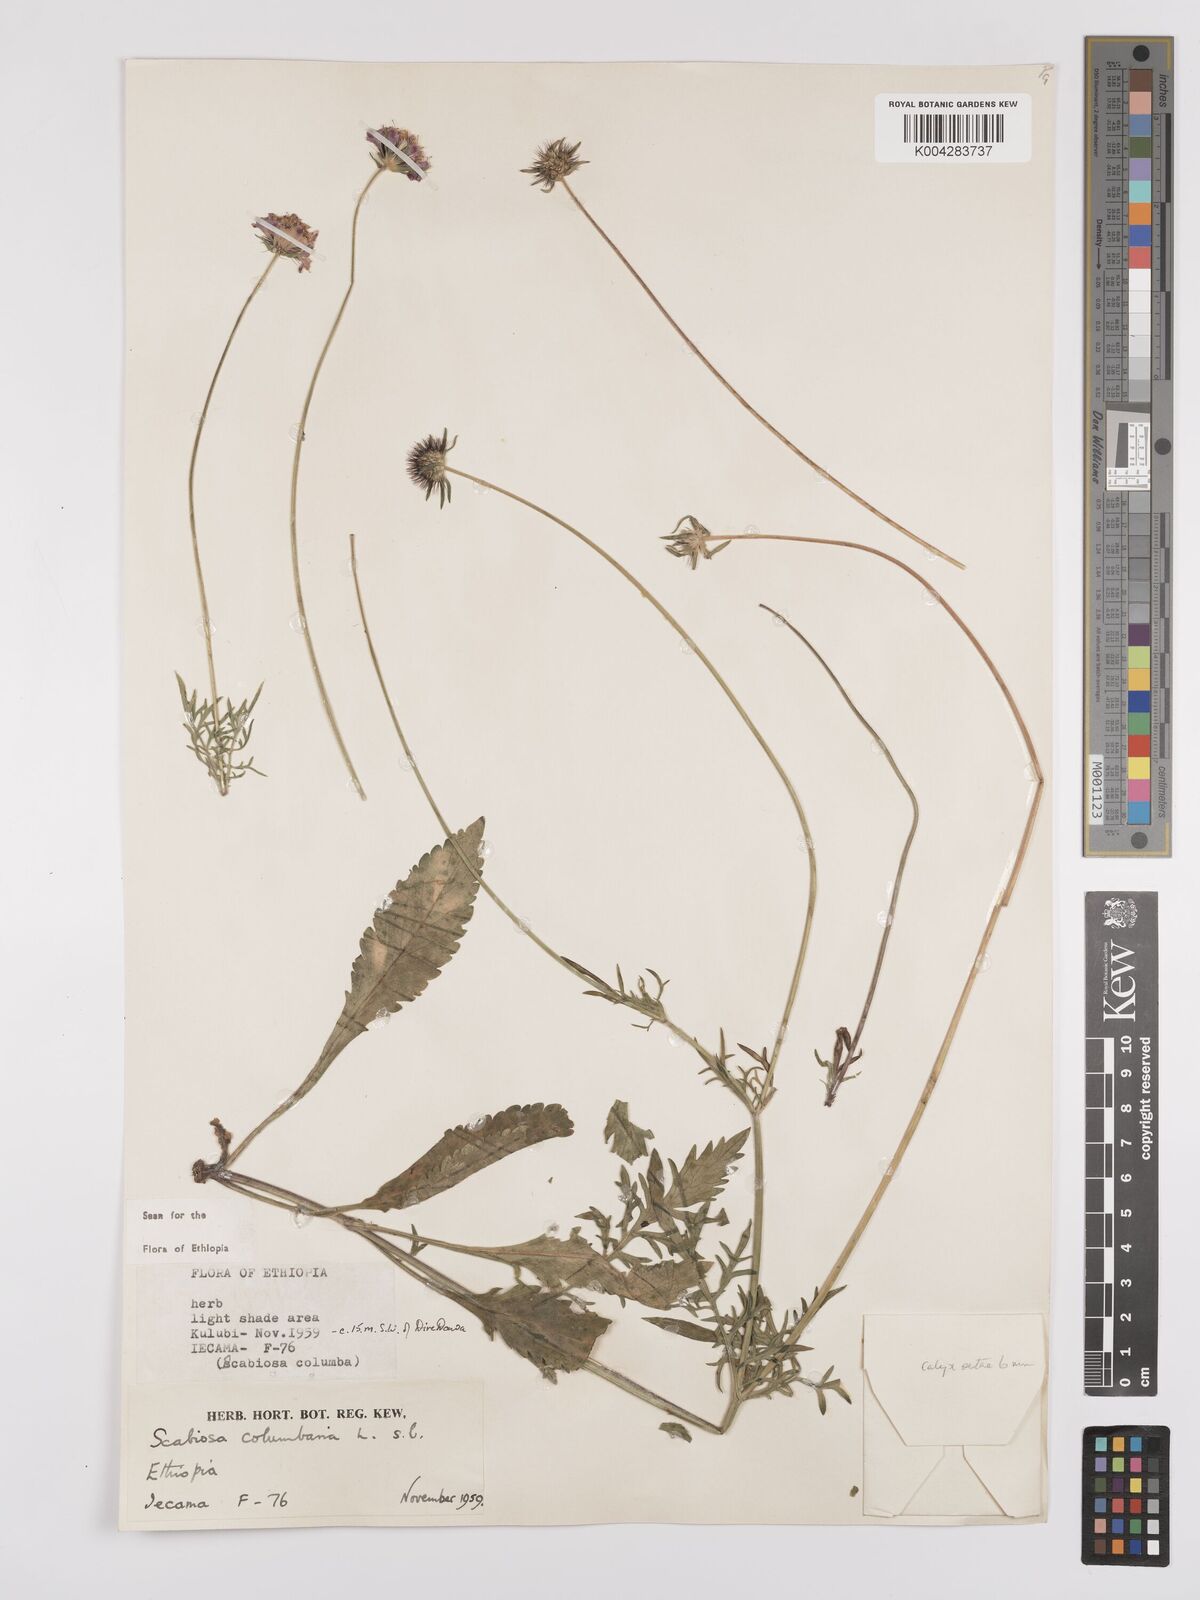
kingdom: Plantae
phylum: Tracheophyta
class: Magnoliopsida
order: Dipsacales
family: Caprifoliaceae
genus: Scabiosa
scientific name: Scabiosa columbaria
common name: Small scabious
